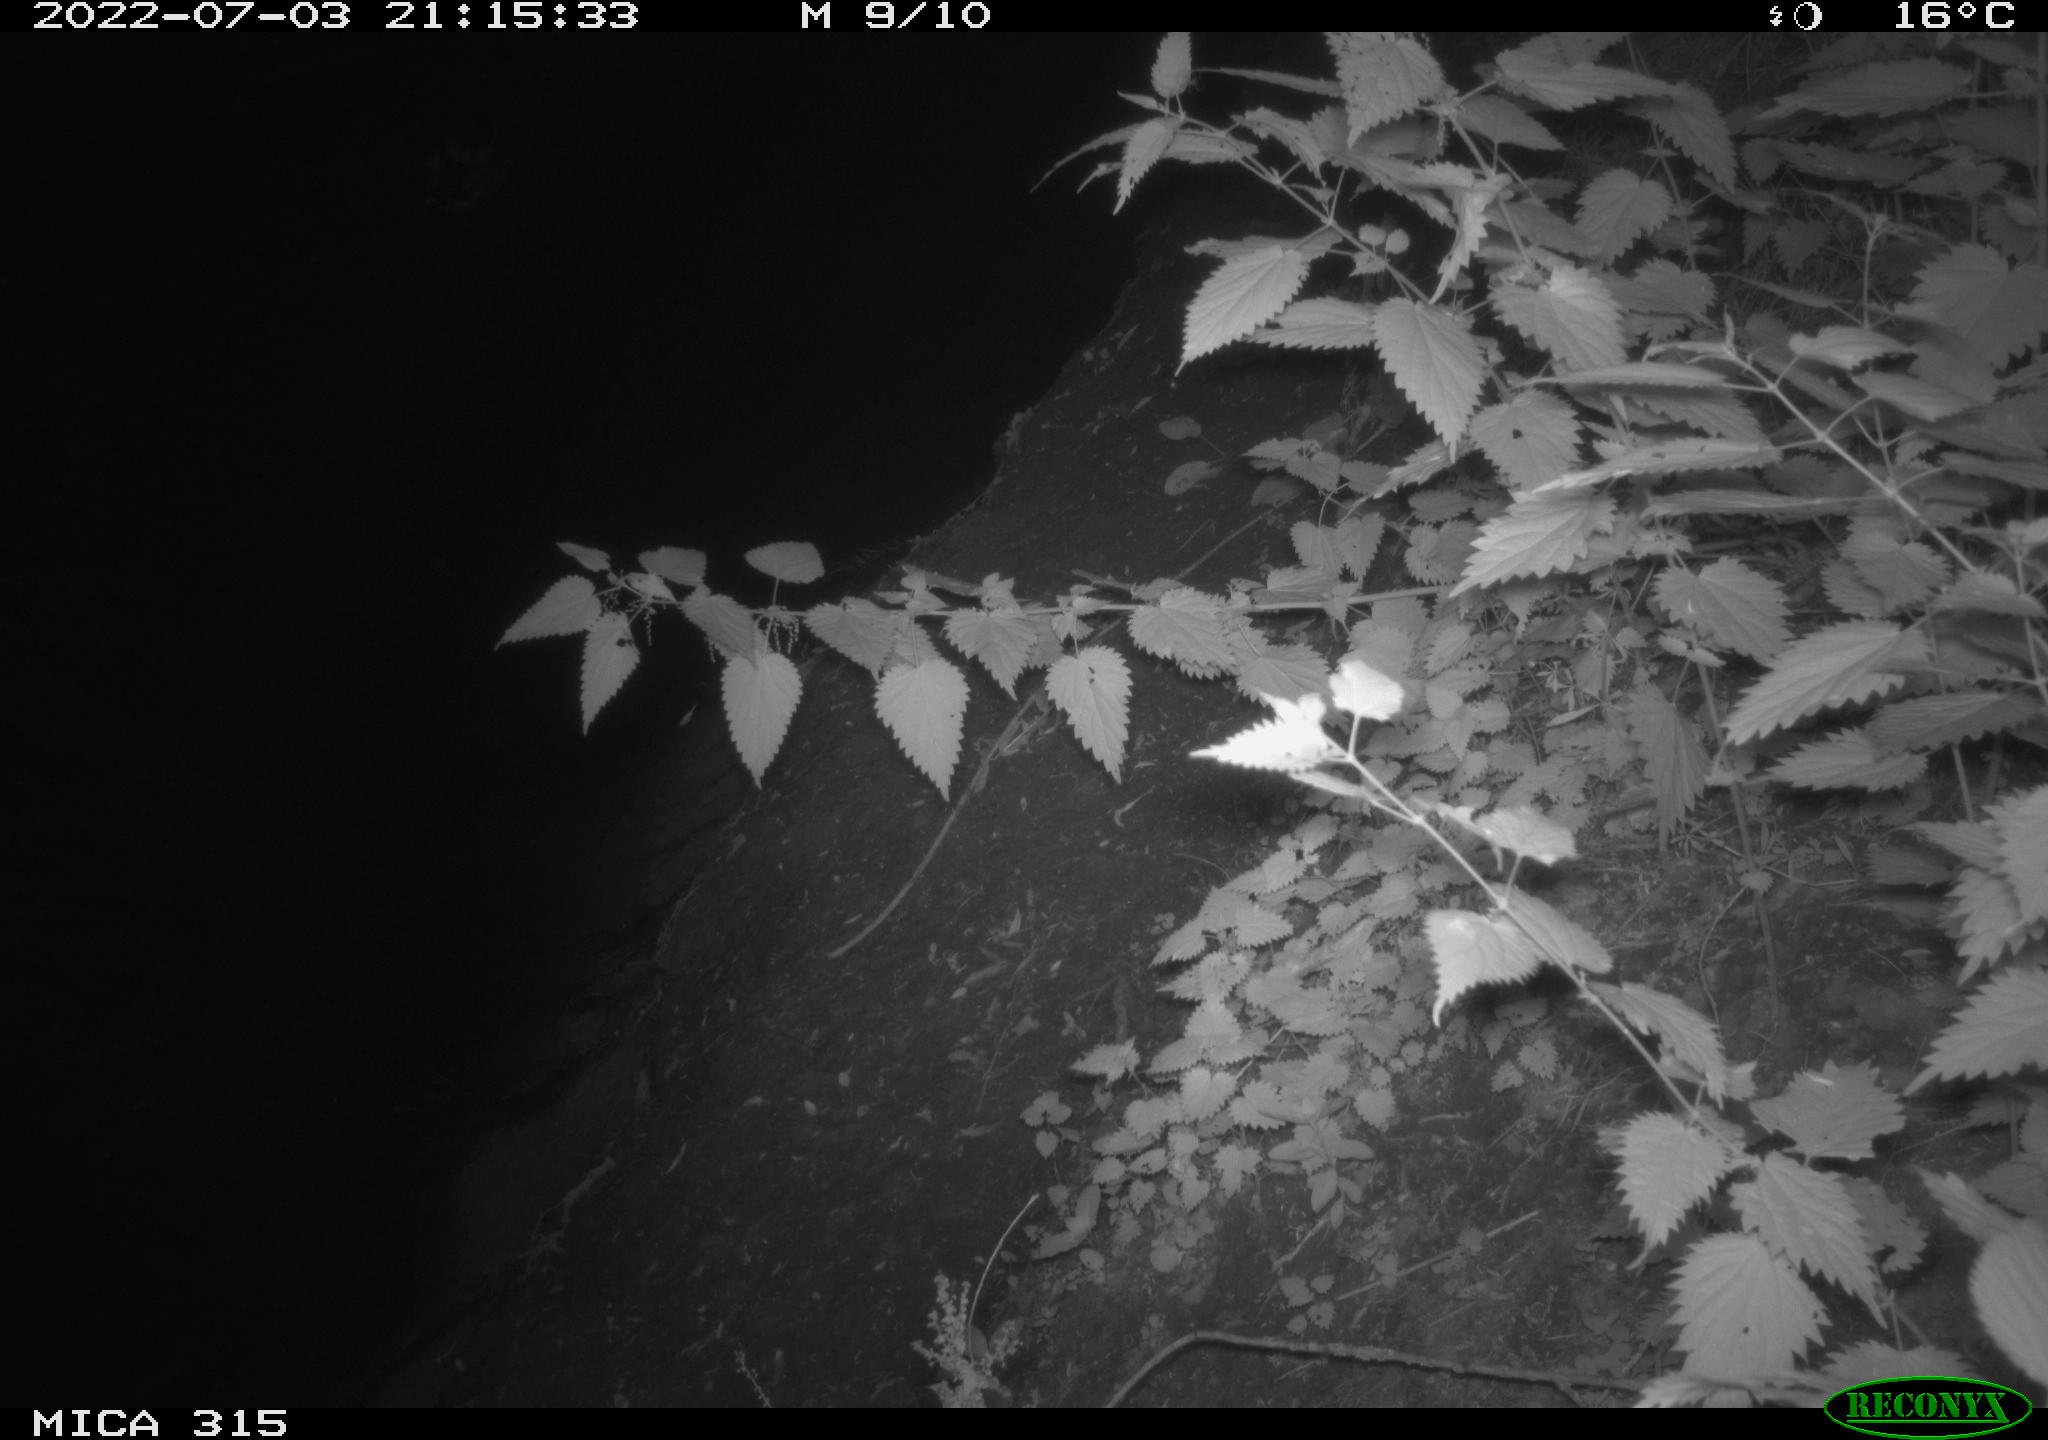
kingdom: Animalia
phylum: Chordata
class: Aves
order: Anseriformes
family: Anatidae
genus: Anas
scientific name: Anas platyrhynchos
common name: Mallard
